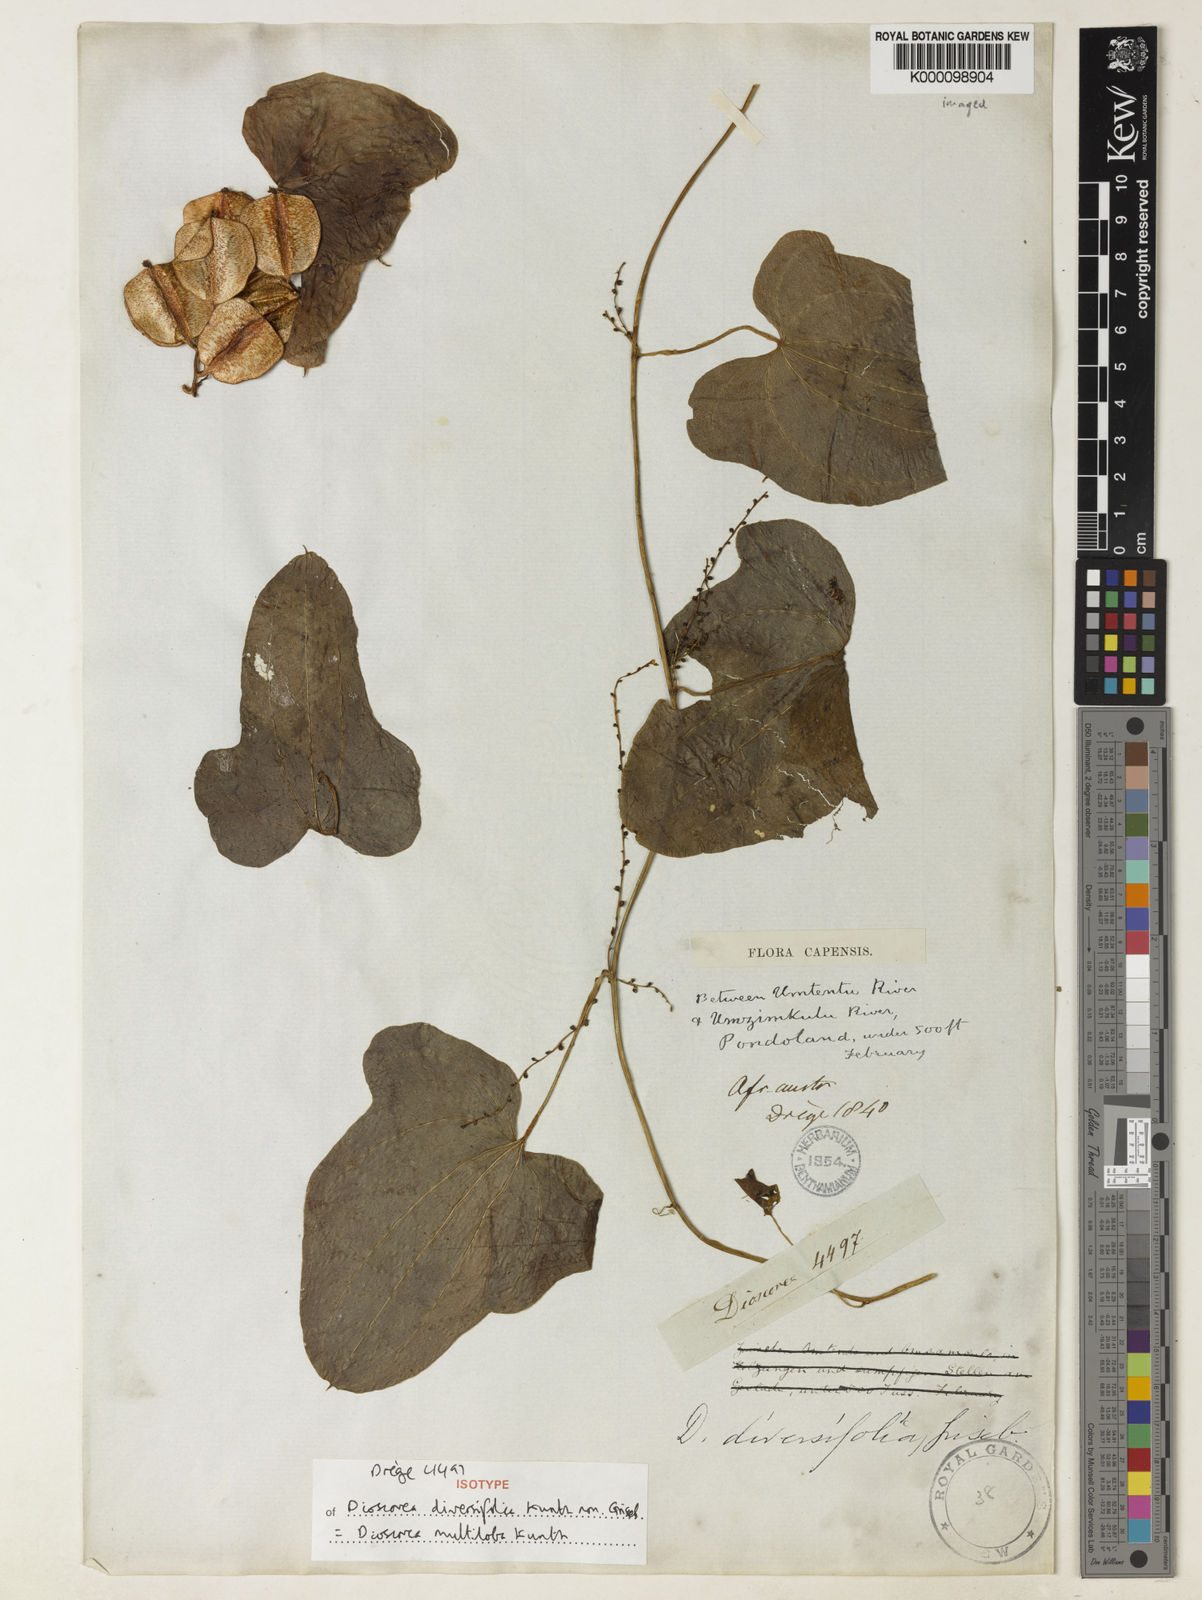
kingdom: Plantae
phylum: Tracheophyta
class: Liliopsida
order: Dioscoreales
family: Dioscoreaceae
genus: Dioscorea
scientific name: Dioscorea multiloba
